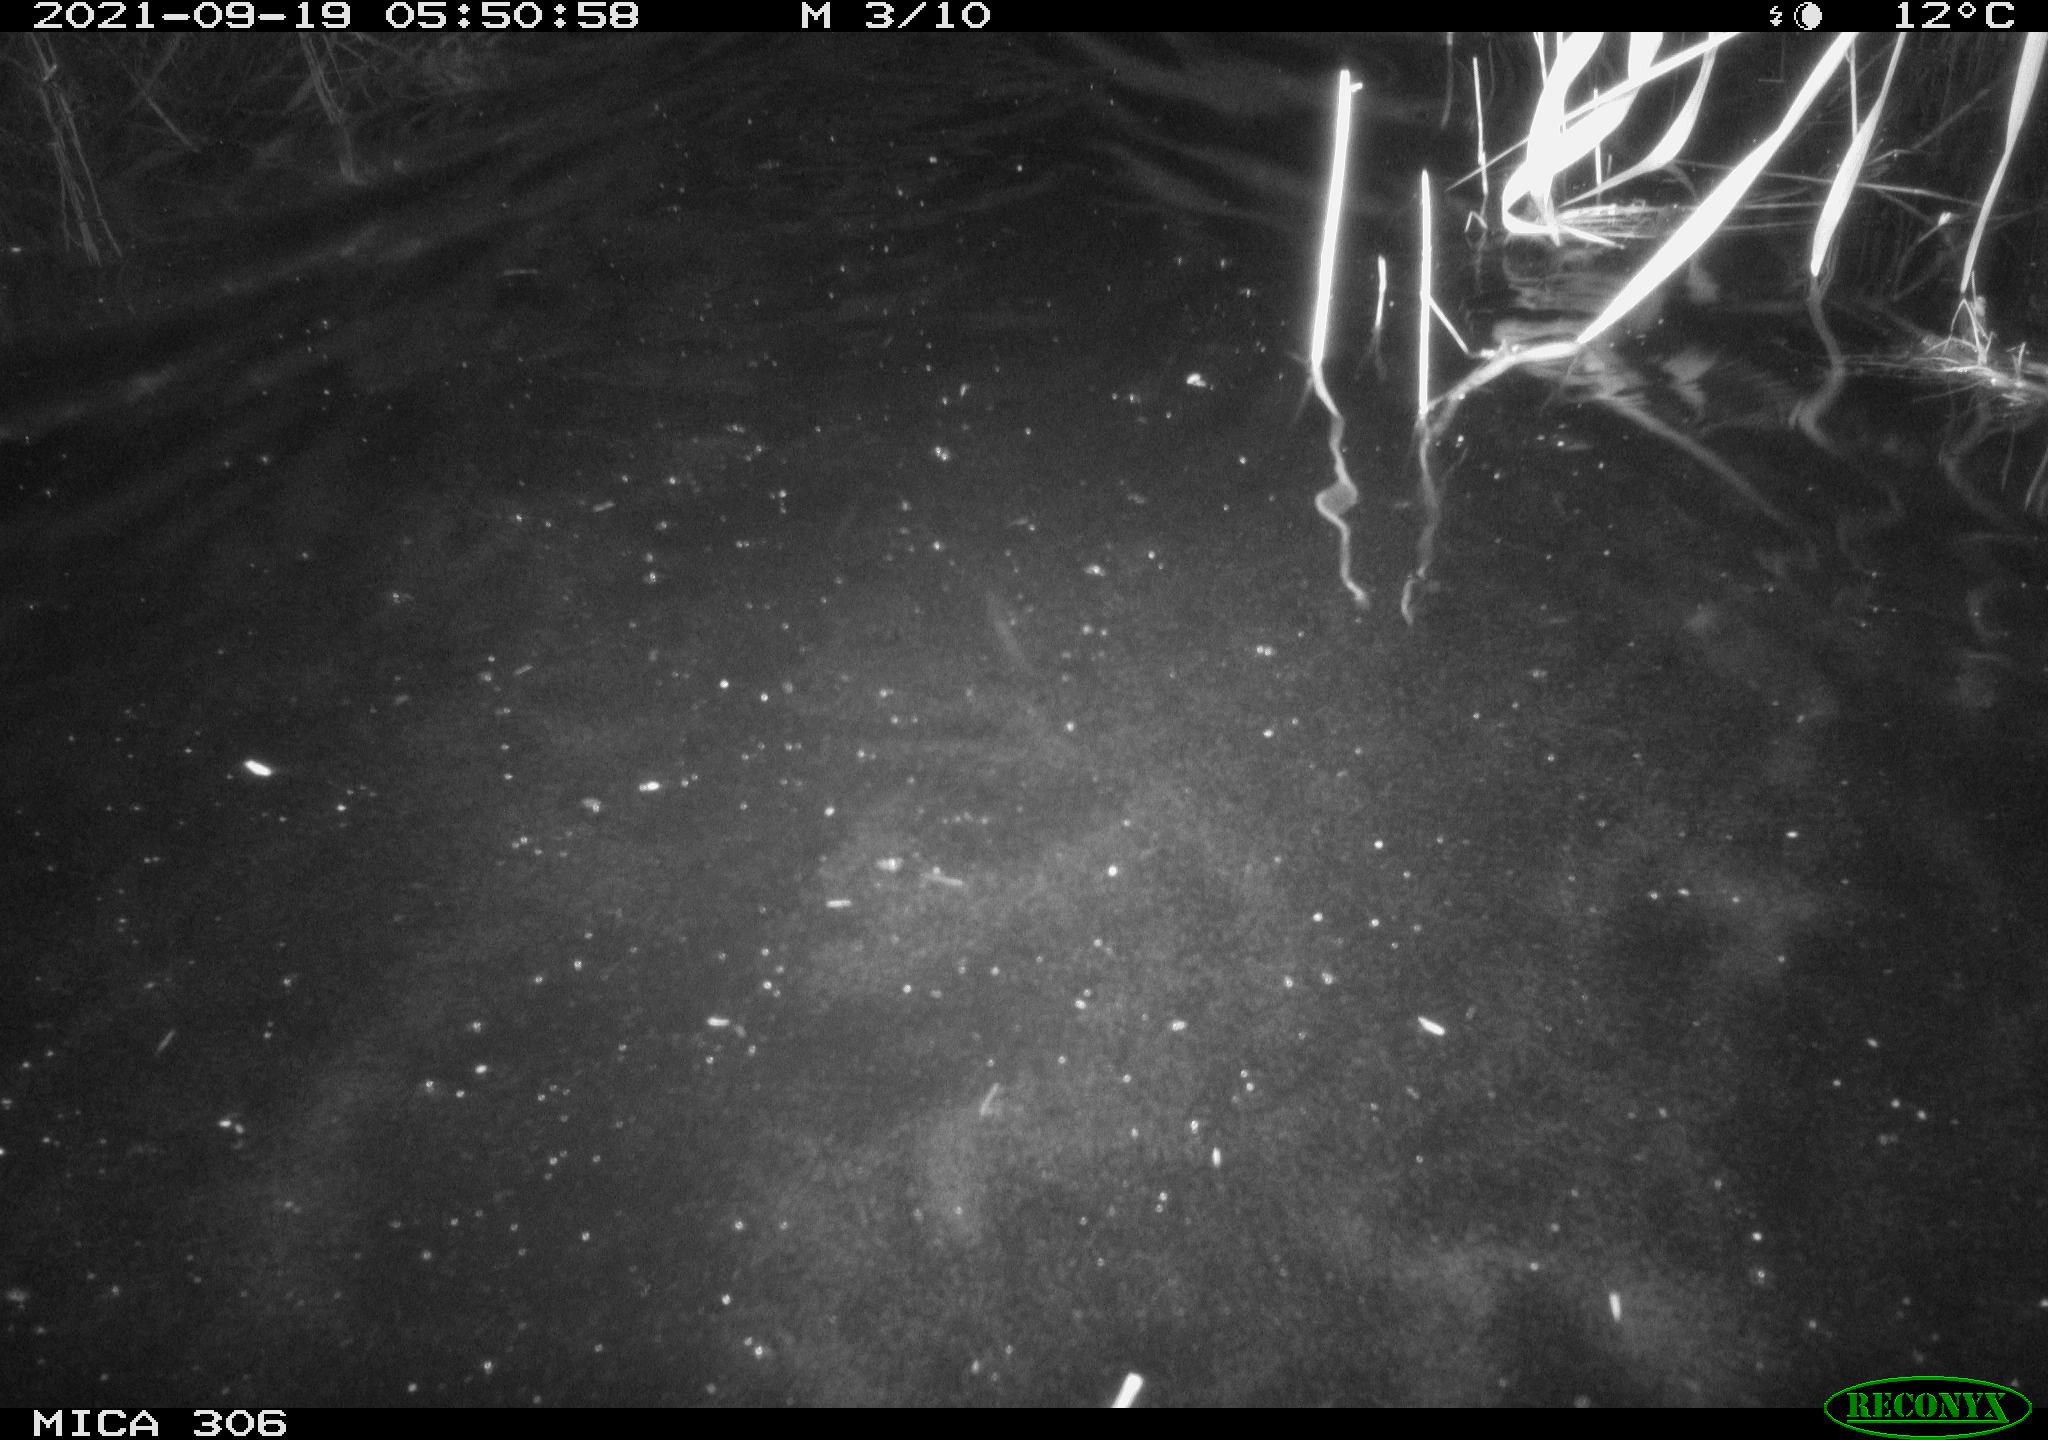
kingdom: Animalia
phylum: Chordata
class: Mammalia
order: Rodentia
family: Cricetidae
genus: Ondatra
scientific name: Ondatra zibethicus
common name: Muskrat
